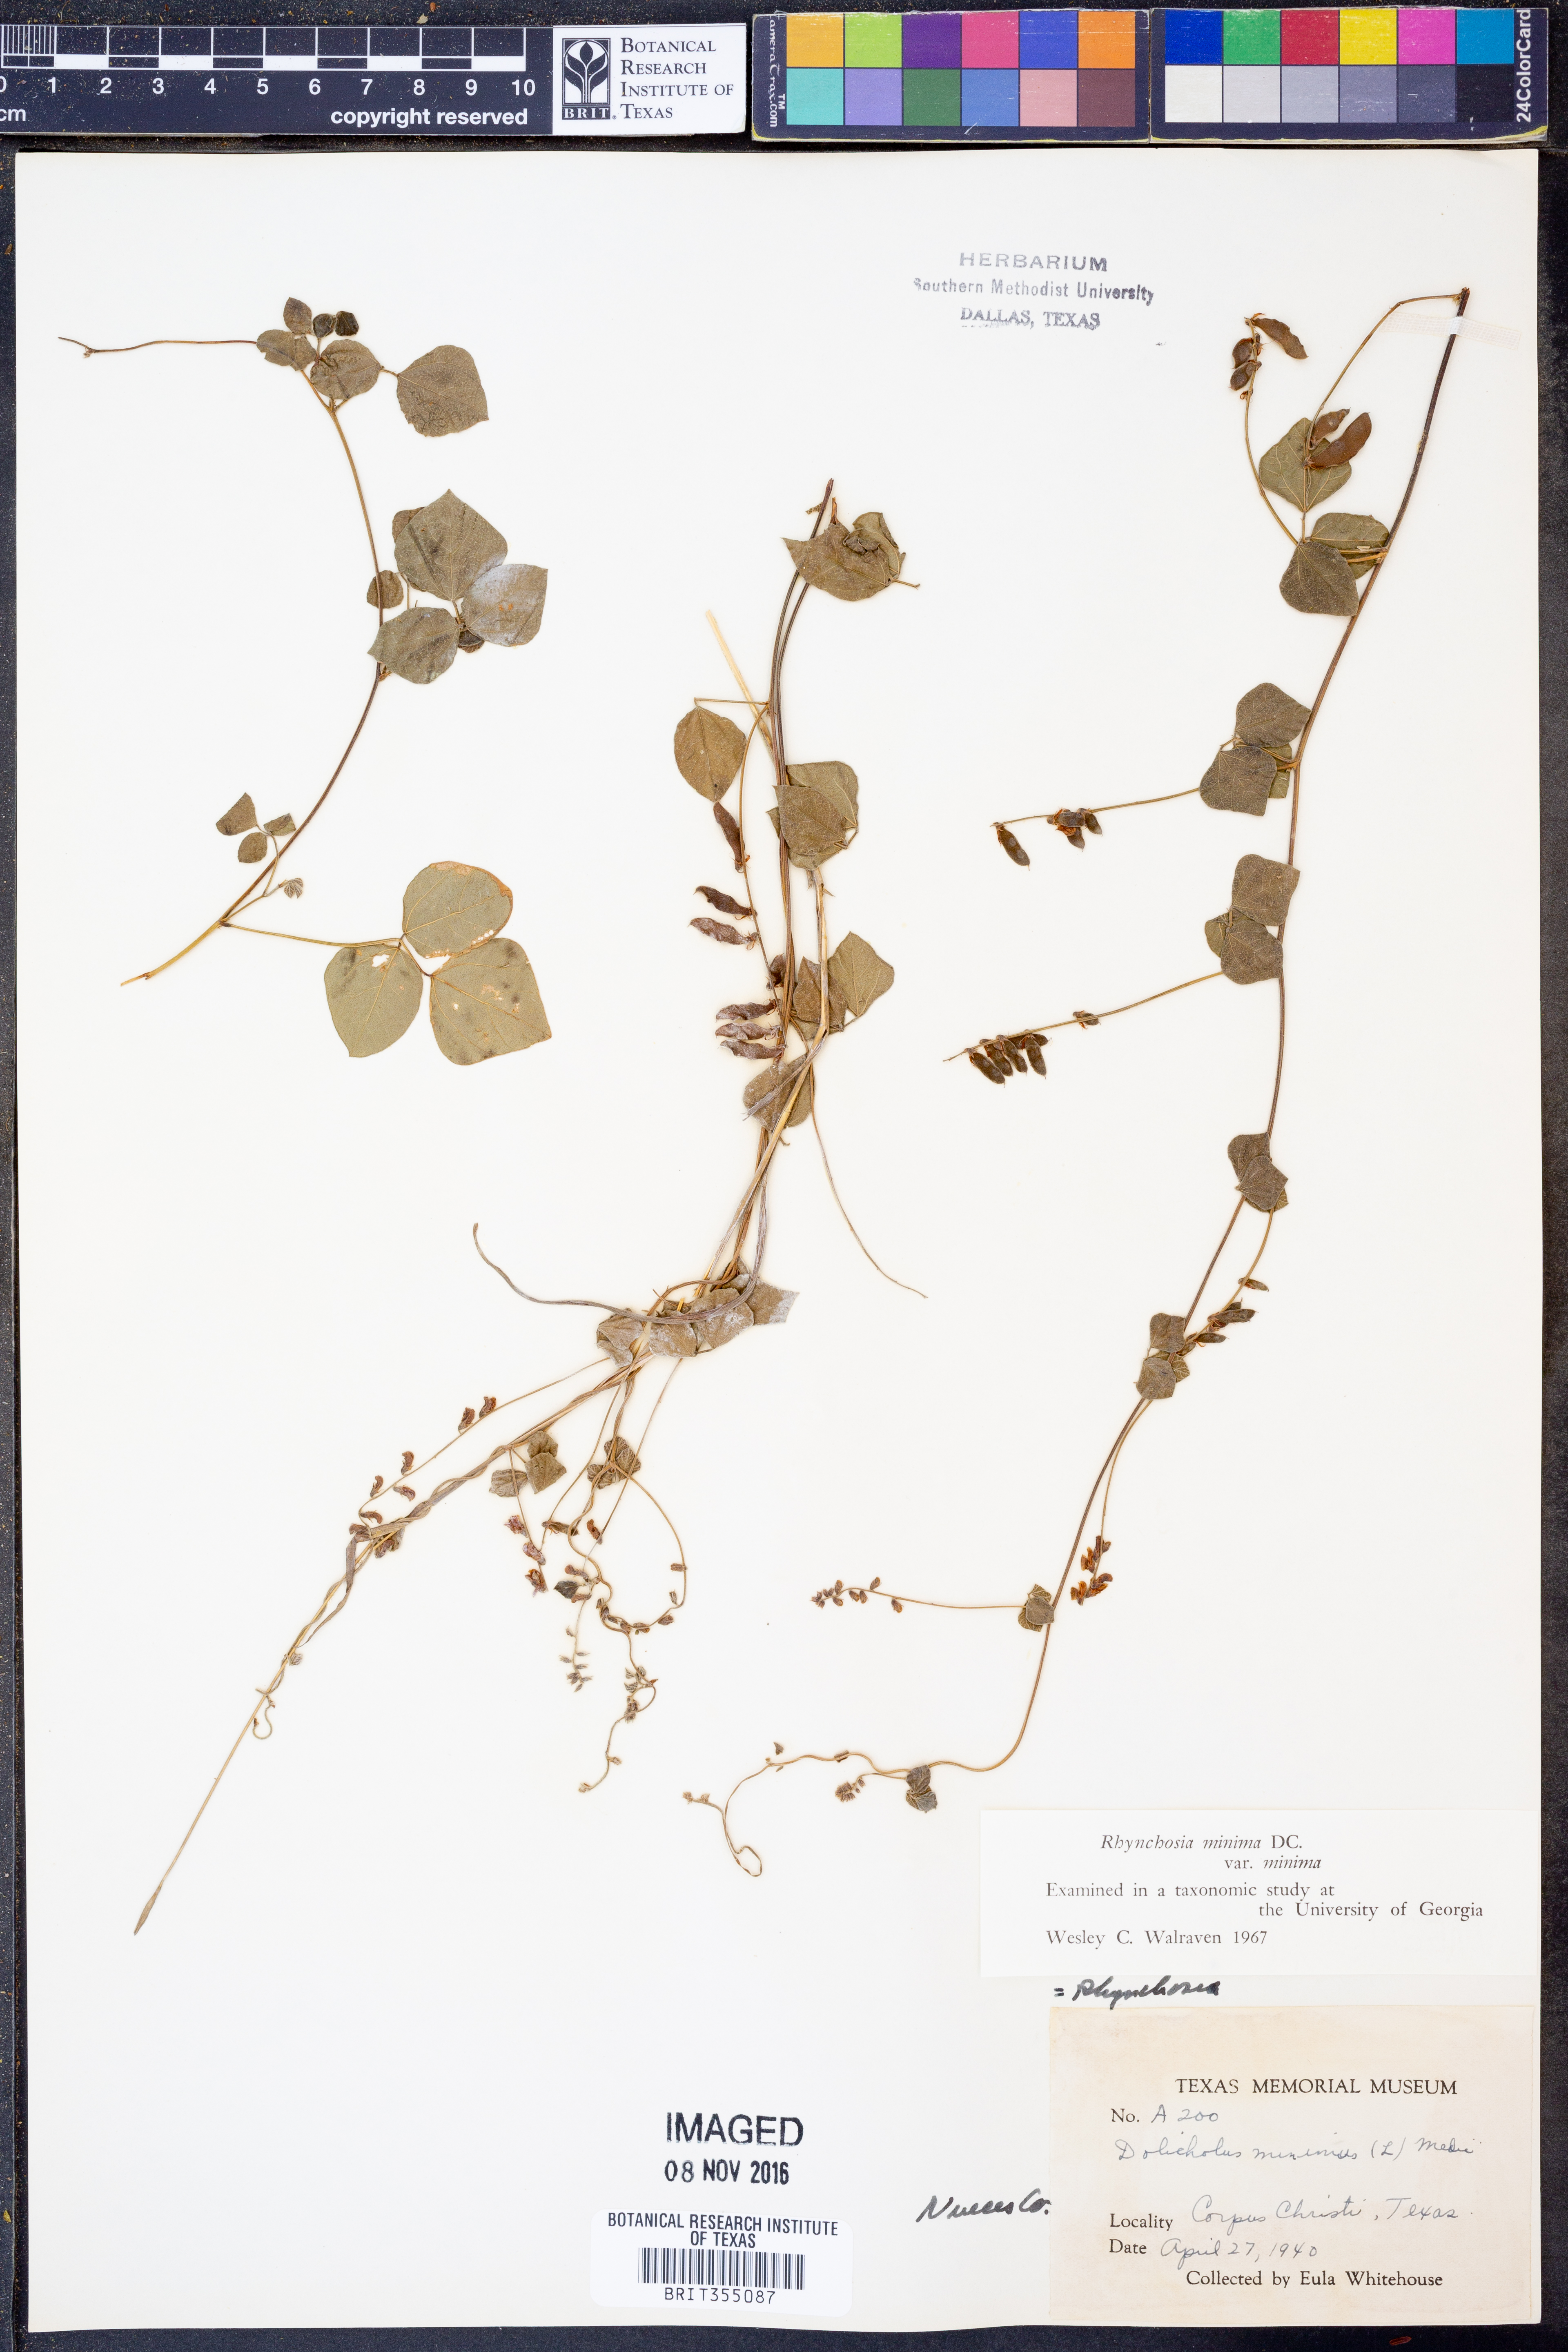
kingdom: Plantae
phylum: Tracheophyta
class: Magnoliopsida
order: Fabales
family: Fabaceae
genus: Rhynchosia
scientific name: Rhynchosia minima
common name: Least snoutbean
